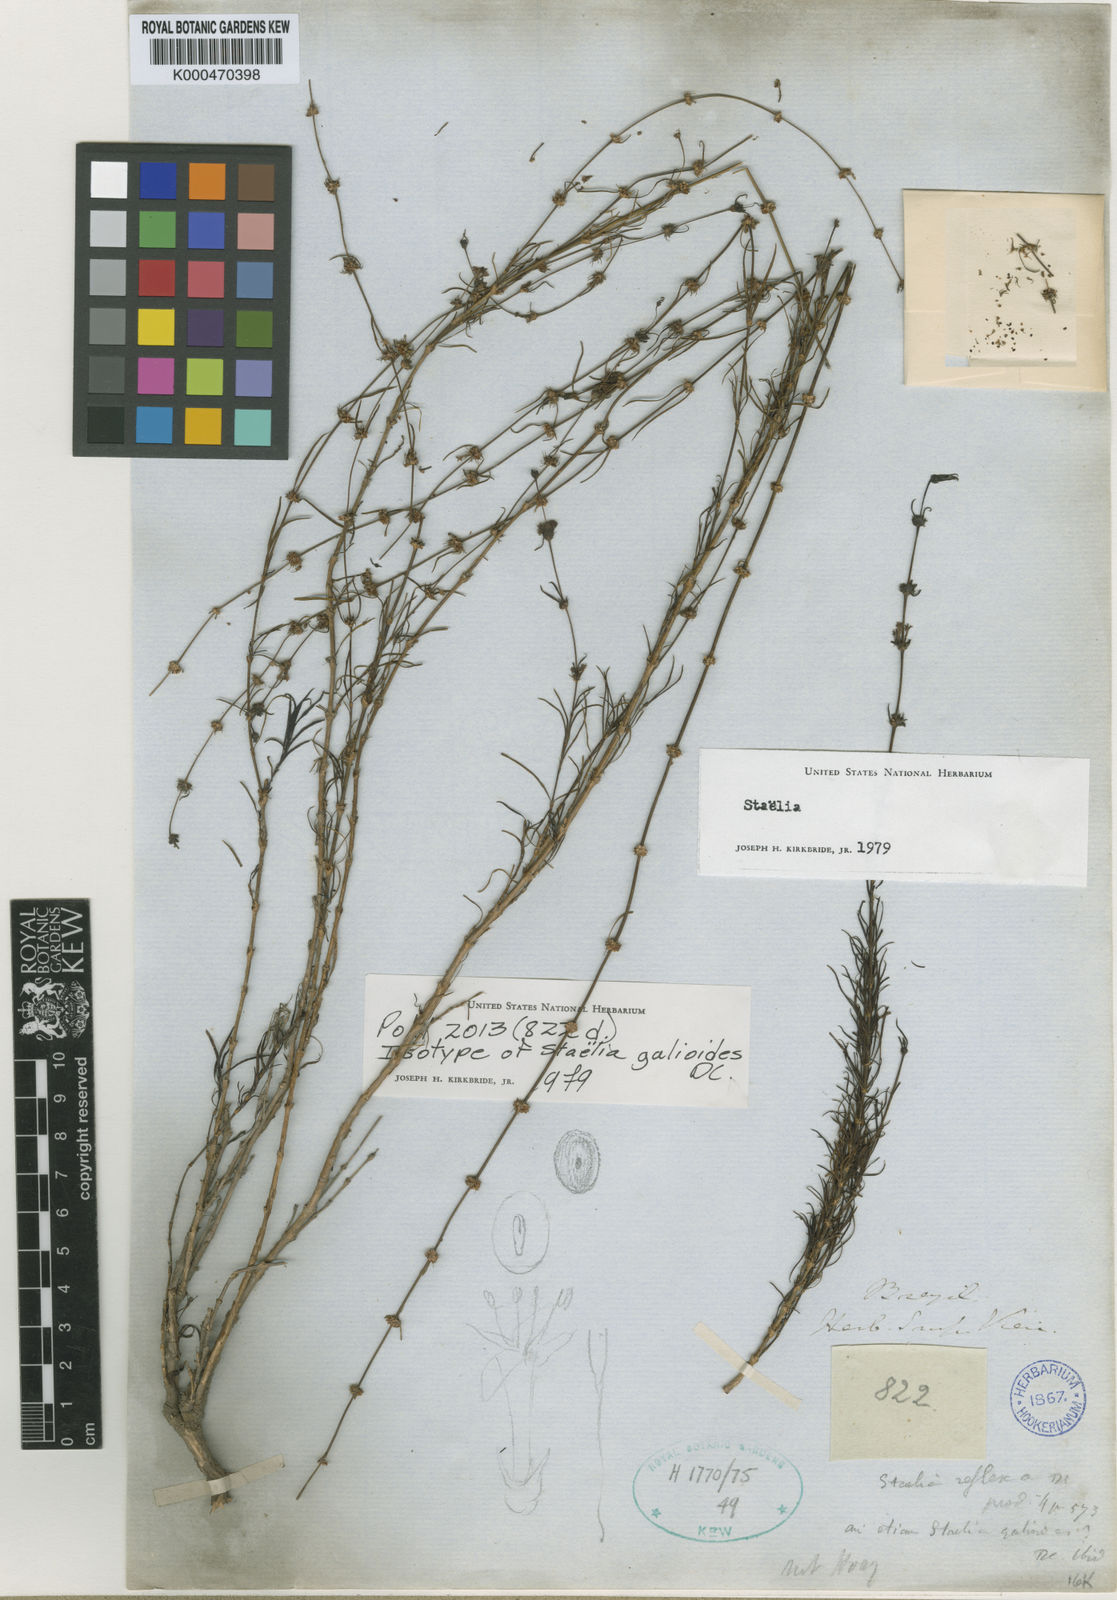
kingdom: Plantae
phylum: Tracheophyta
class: Magnoliopsida
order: Gentianales
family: Rubiaceae
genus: Staelia
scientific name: Staelia galioides
